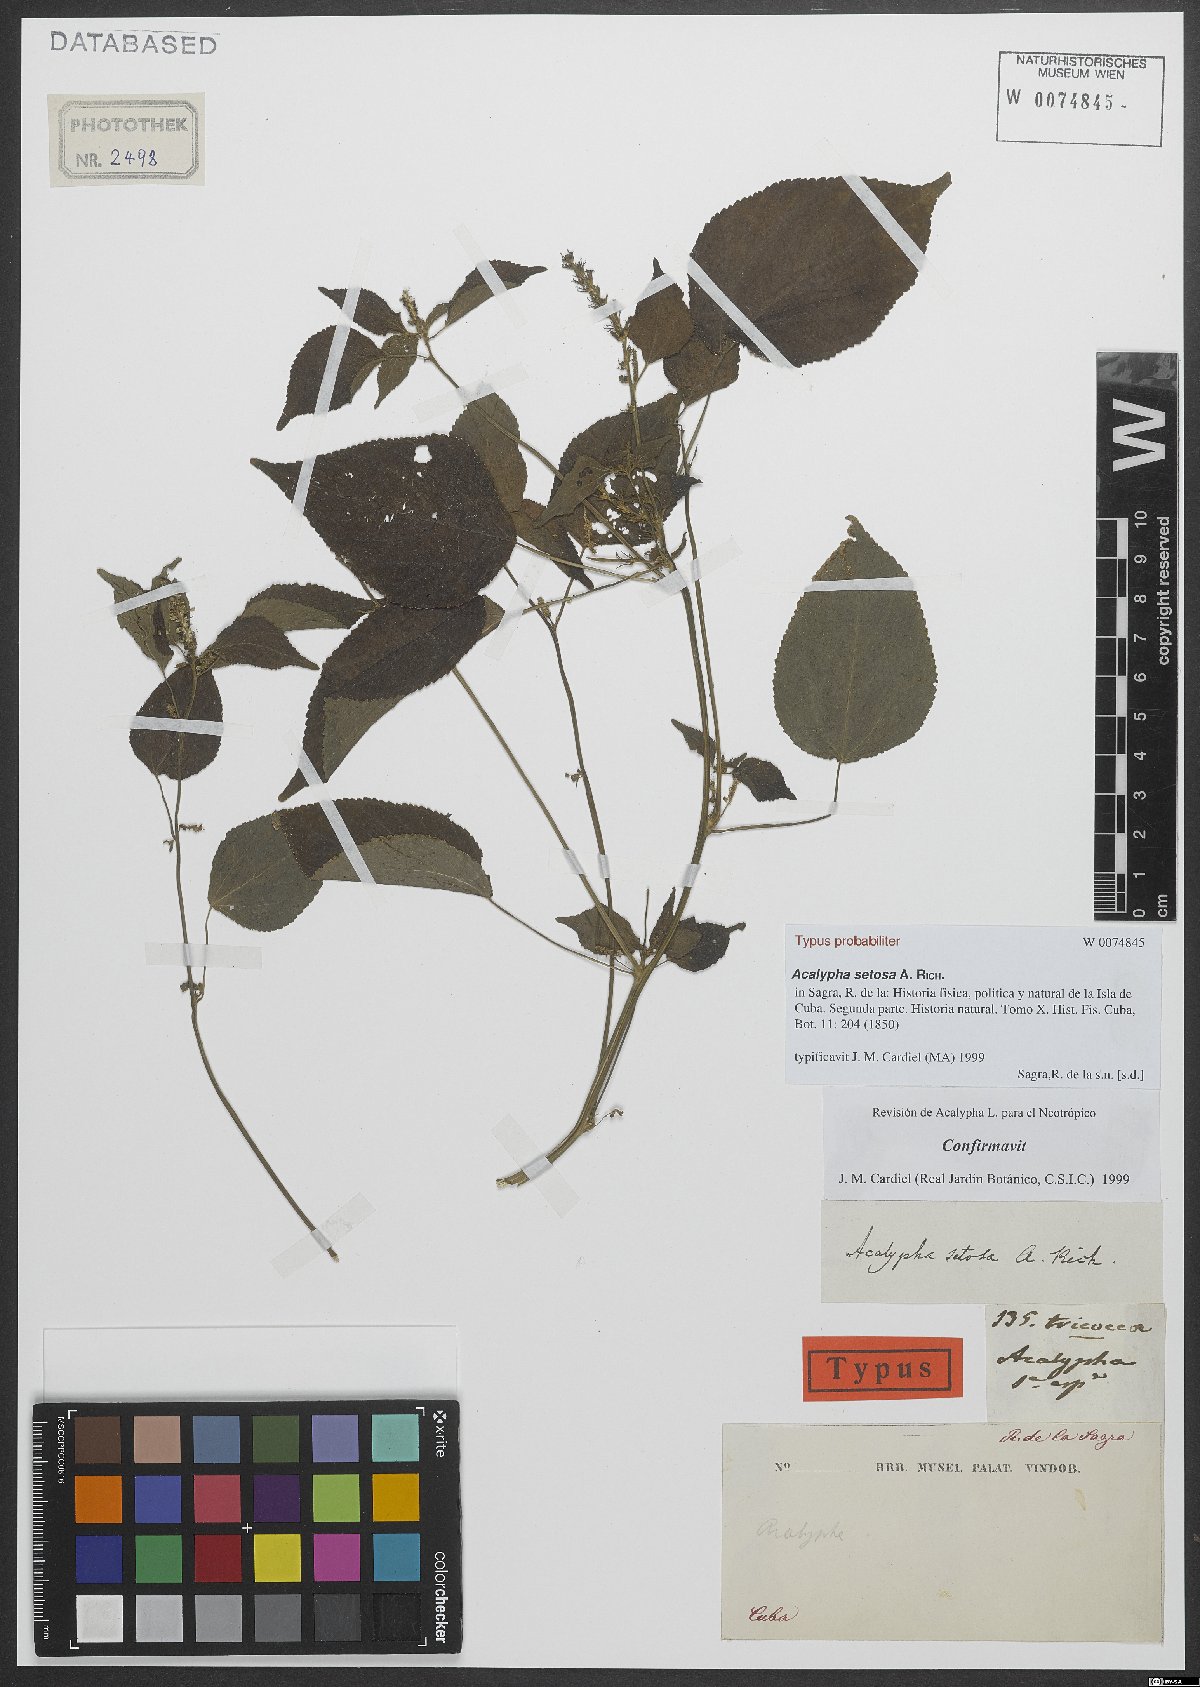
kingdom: Plantae
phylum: Tracheophyta
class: Magnoliopsida
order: Malpighiales
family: Euphorbiaceae
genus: Acalypha
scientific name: Acalypha setosa
